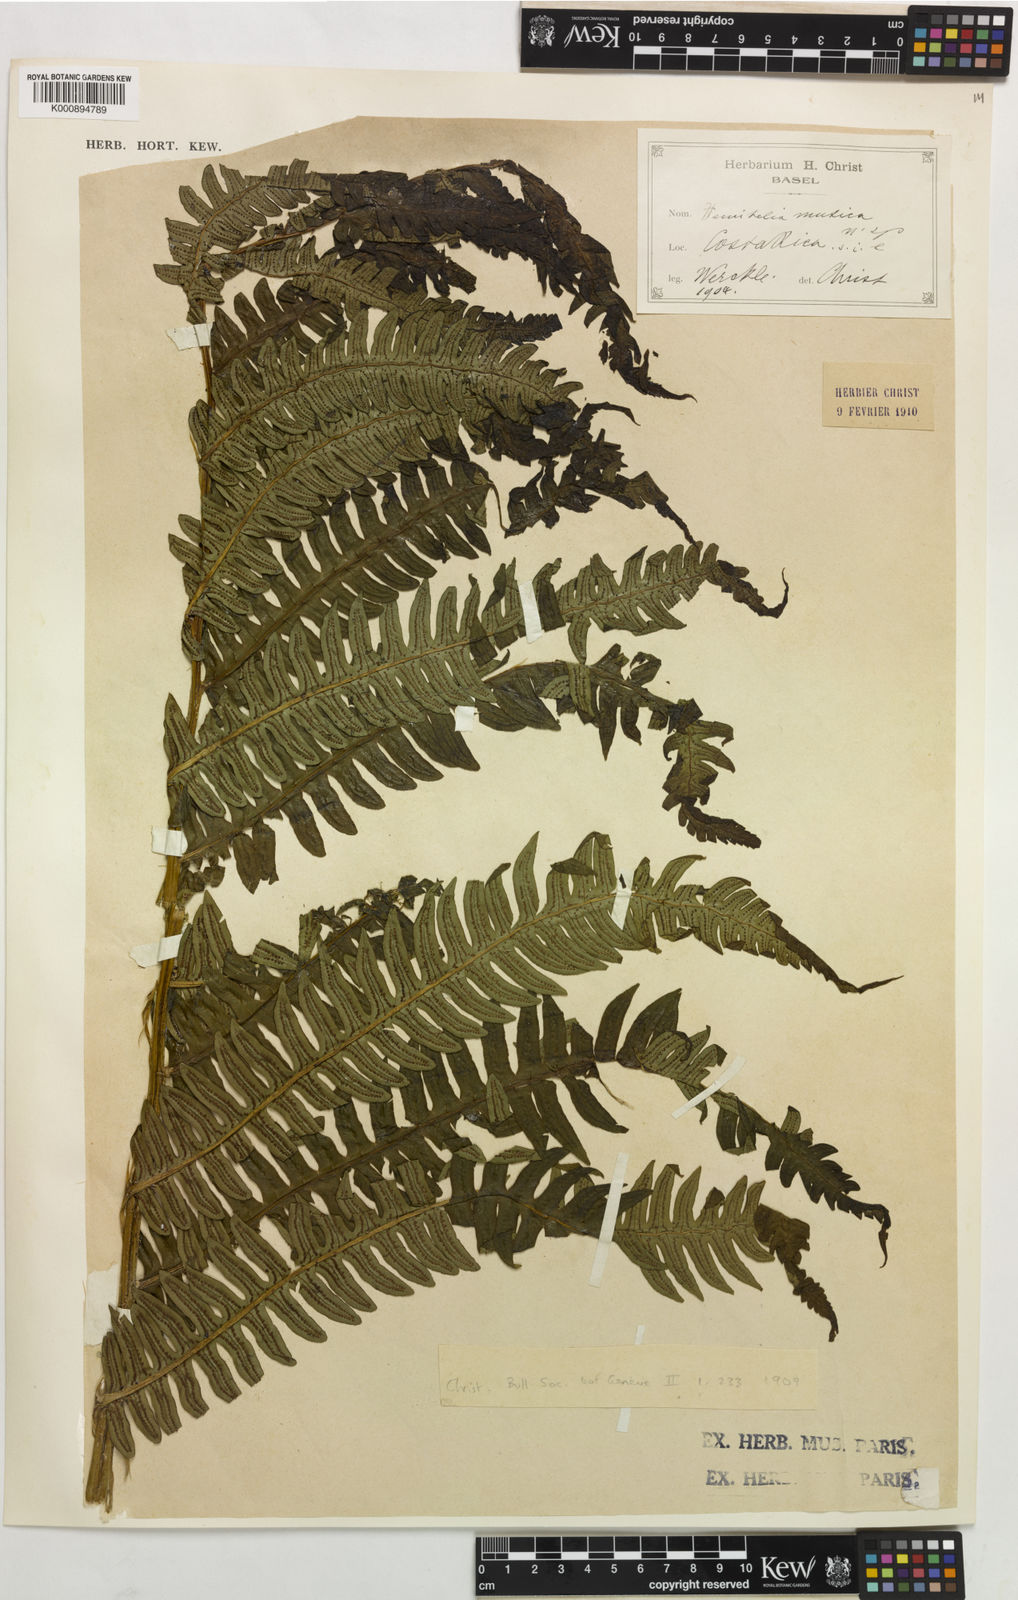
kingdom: Plantae
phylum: Tracheophyta
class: Polypodiopsida
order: Cyatheales
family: Cyatheaceae
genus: Cyathea
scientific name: Cyathea mutica
